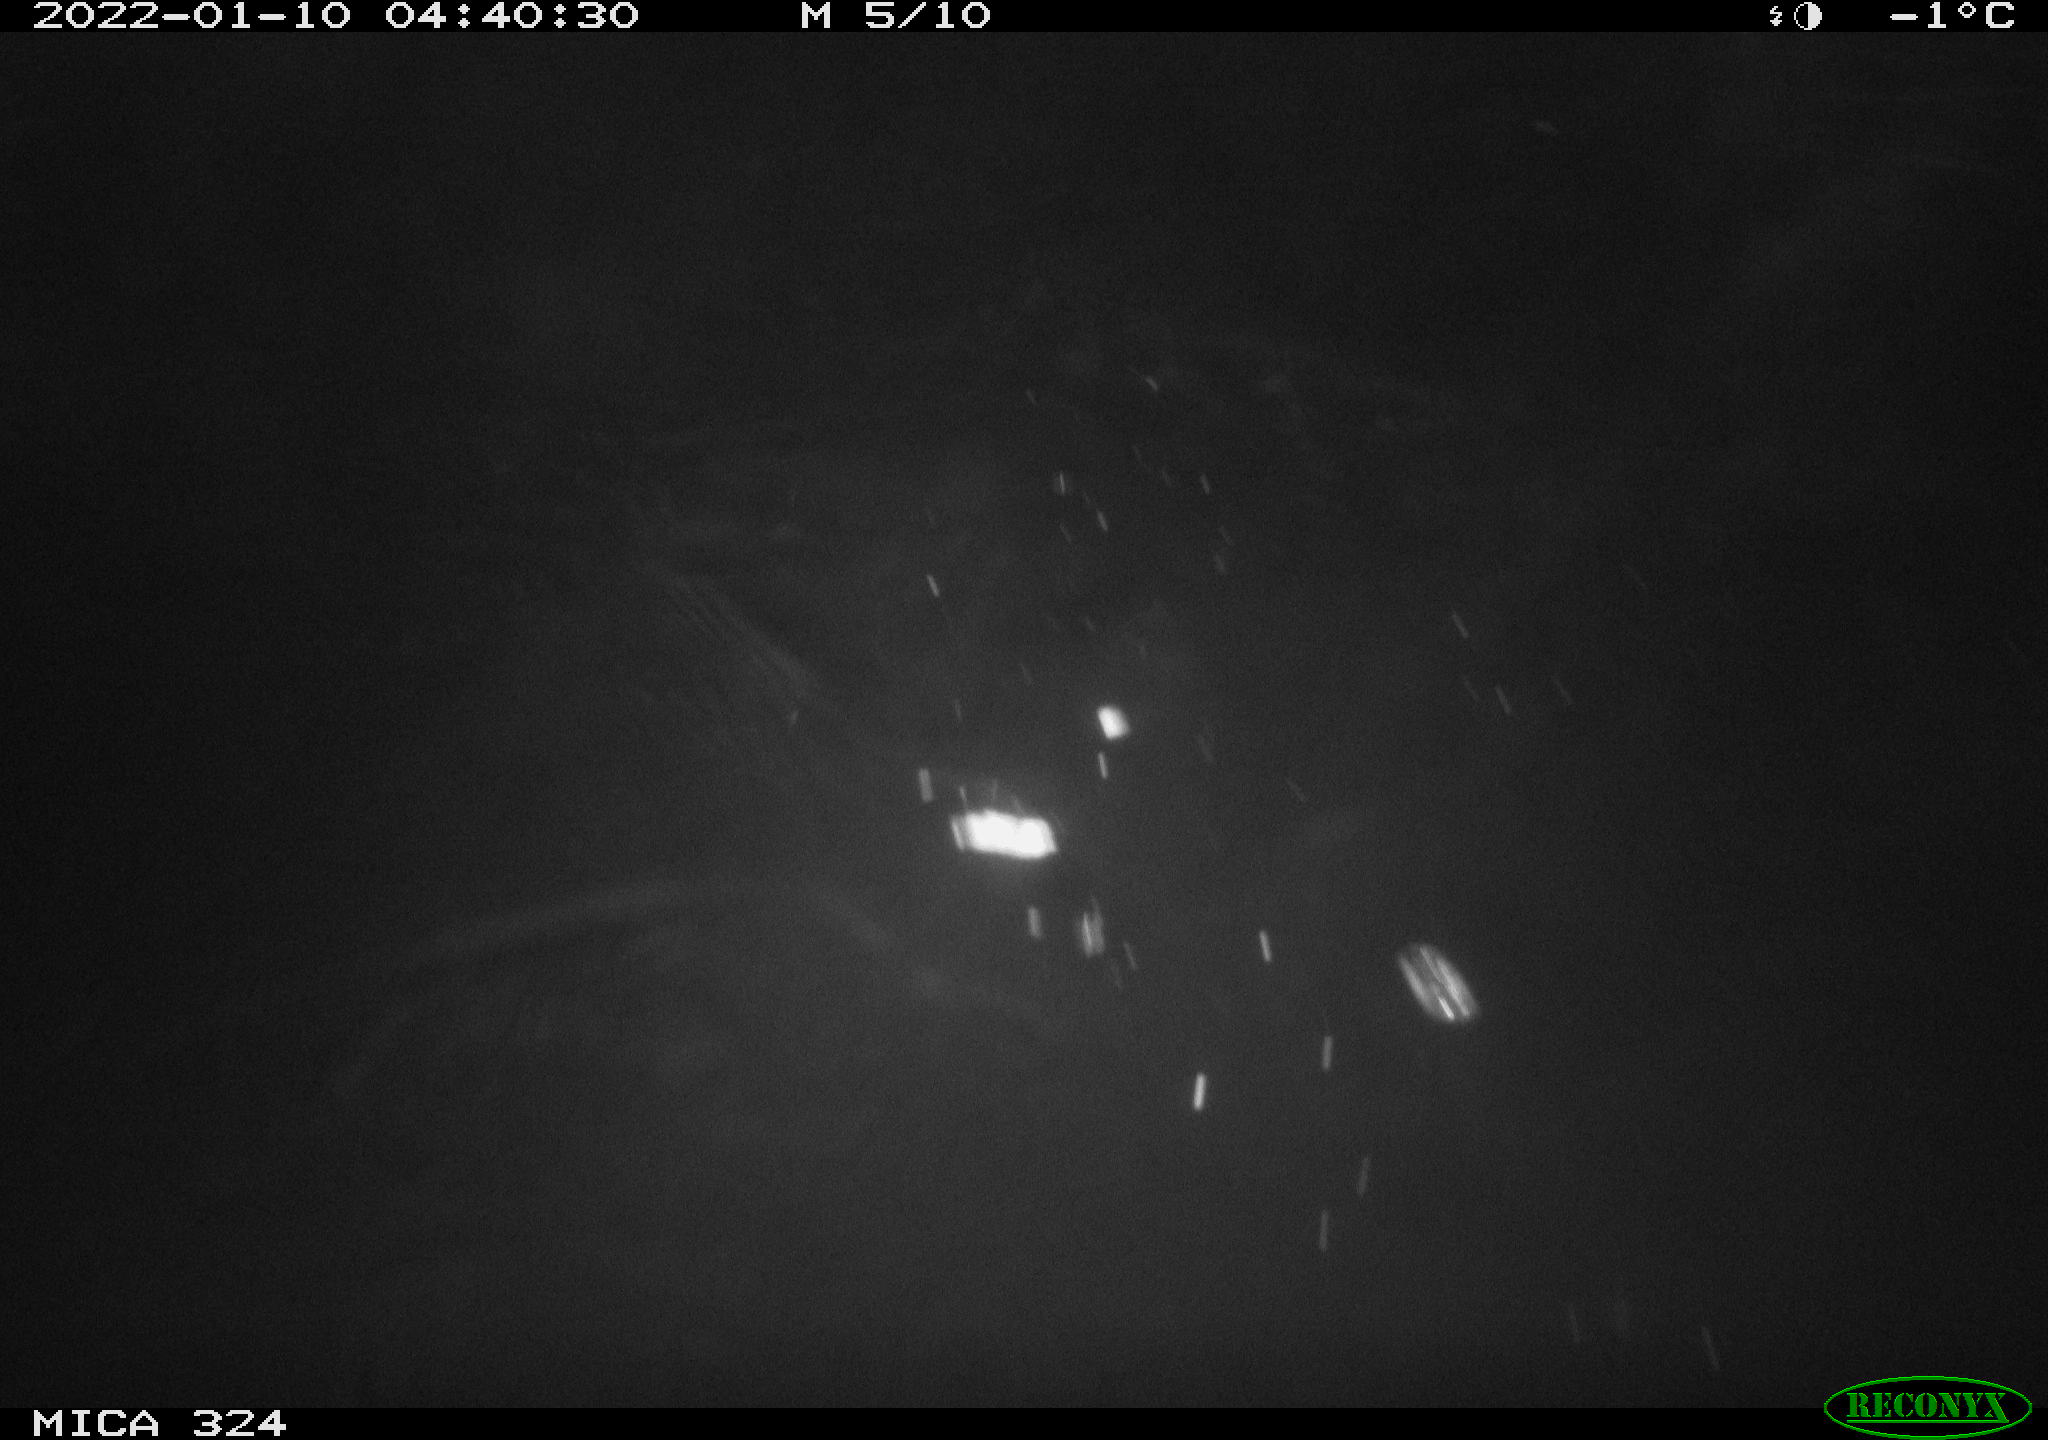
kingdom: Animalia
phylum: Chordata
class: Mammalia
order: Rodentia
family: Cricetidae
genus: Ondatra
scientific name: Ondatra zibethicus
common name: Muskrat
